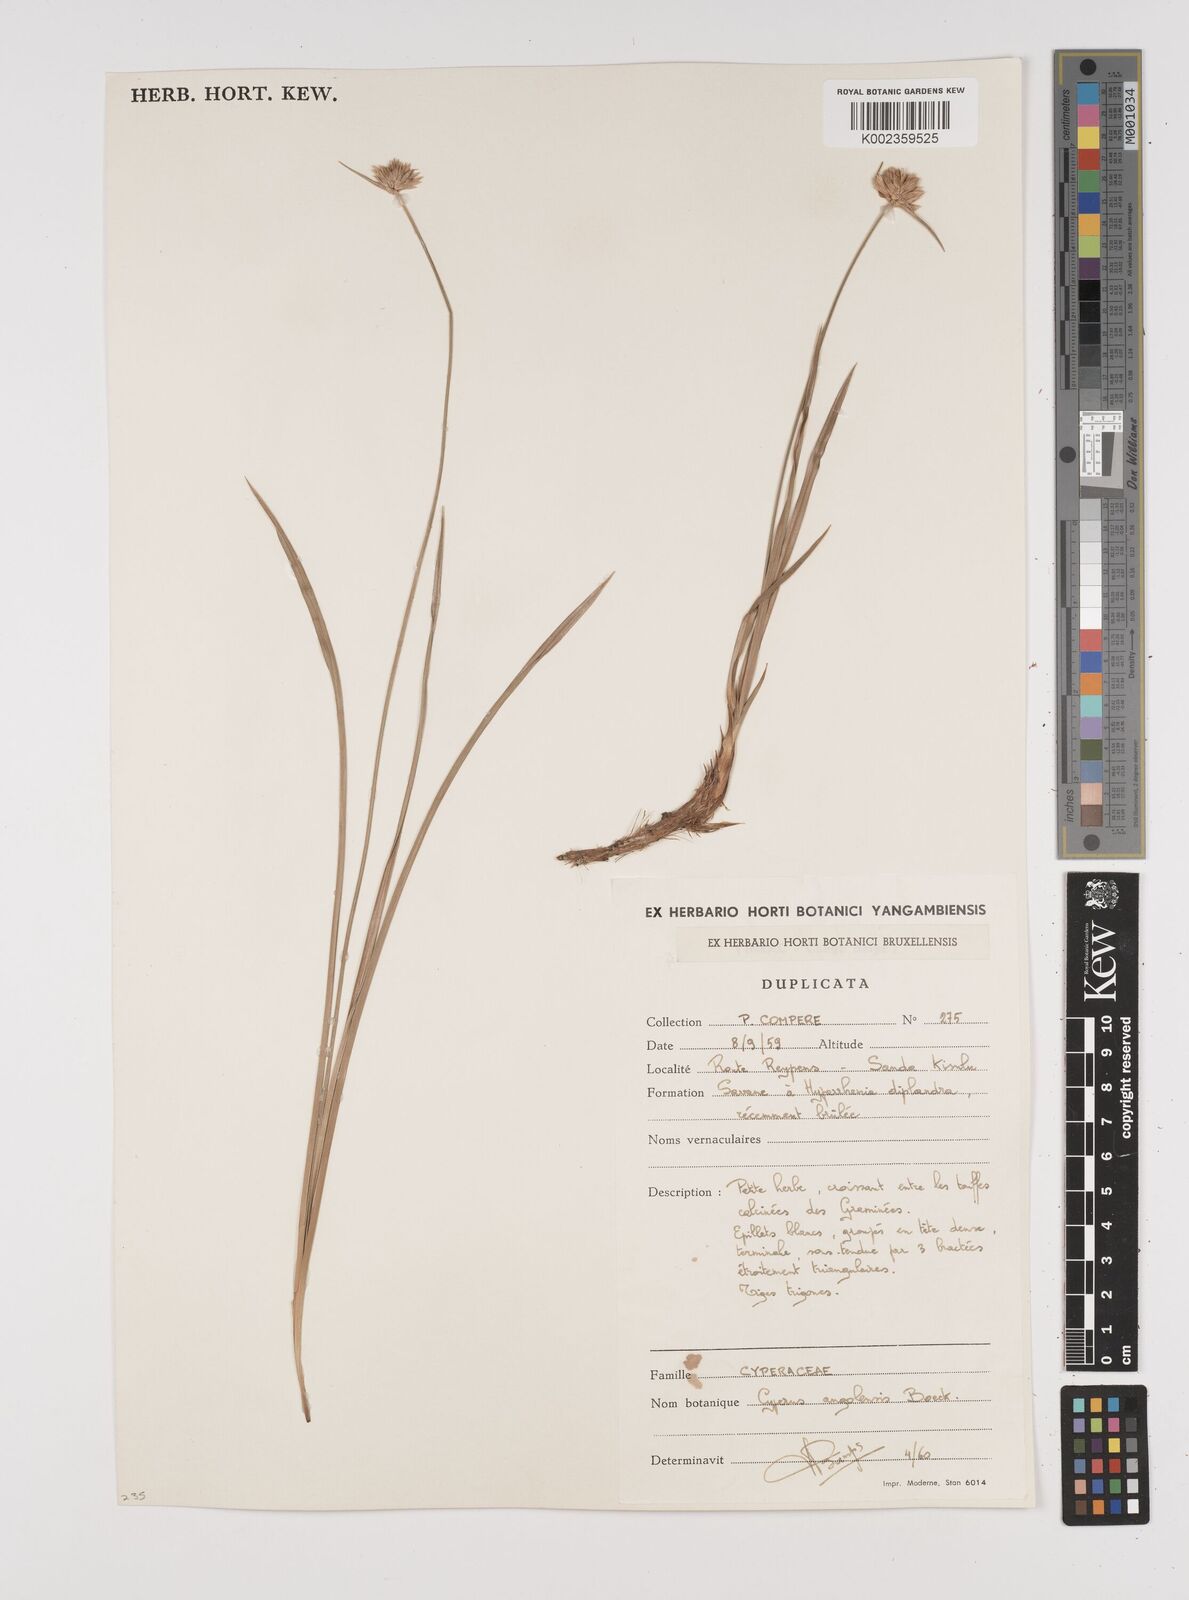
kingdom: Plantae
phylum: Tracheophyta
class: Liliopsida
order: Poales
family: Cyperaceae
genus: Cyperus
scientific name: Cyperus angolensis
